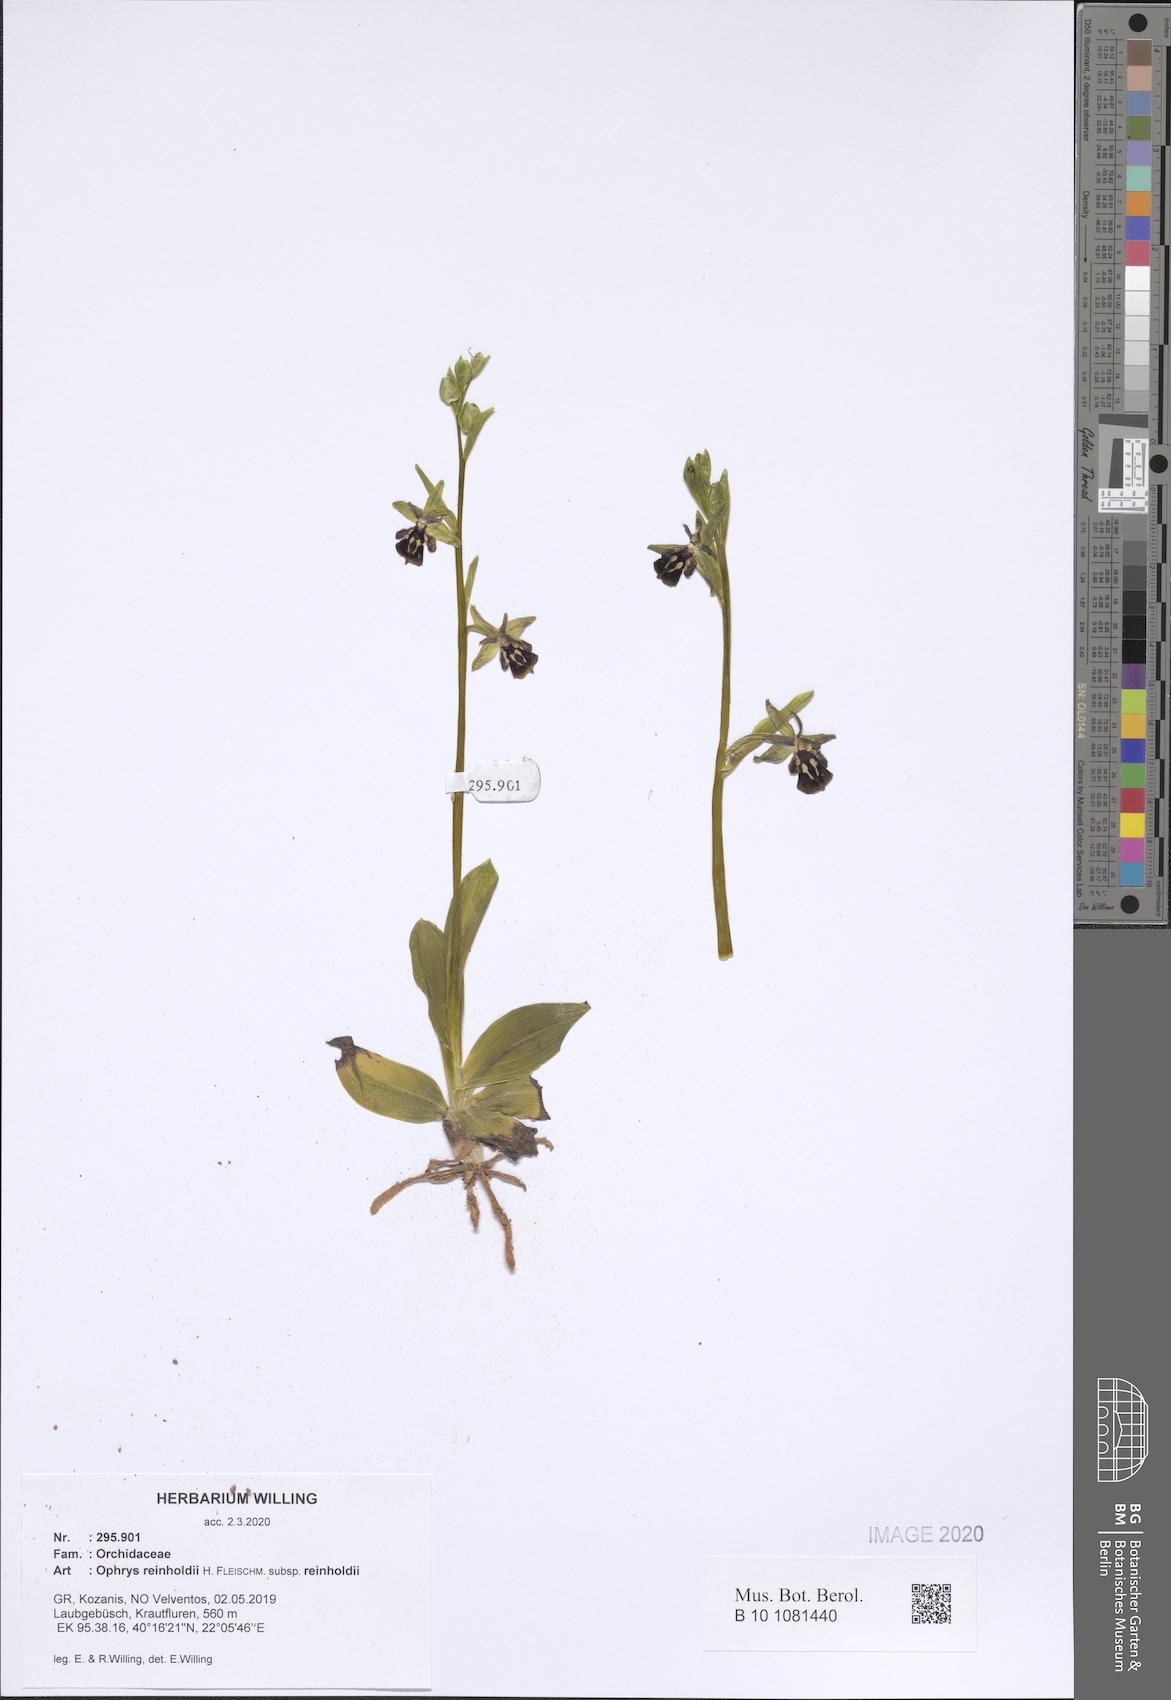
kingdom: Plantae
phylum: Tracheophyta
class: Liliopsida
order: Asparagales
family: Orchidaceae
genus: Ophrys
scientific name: Ophrys reinholdii
